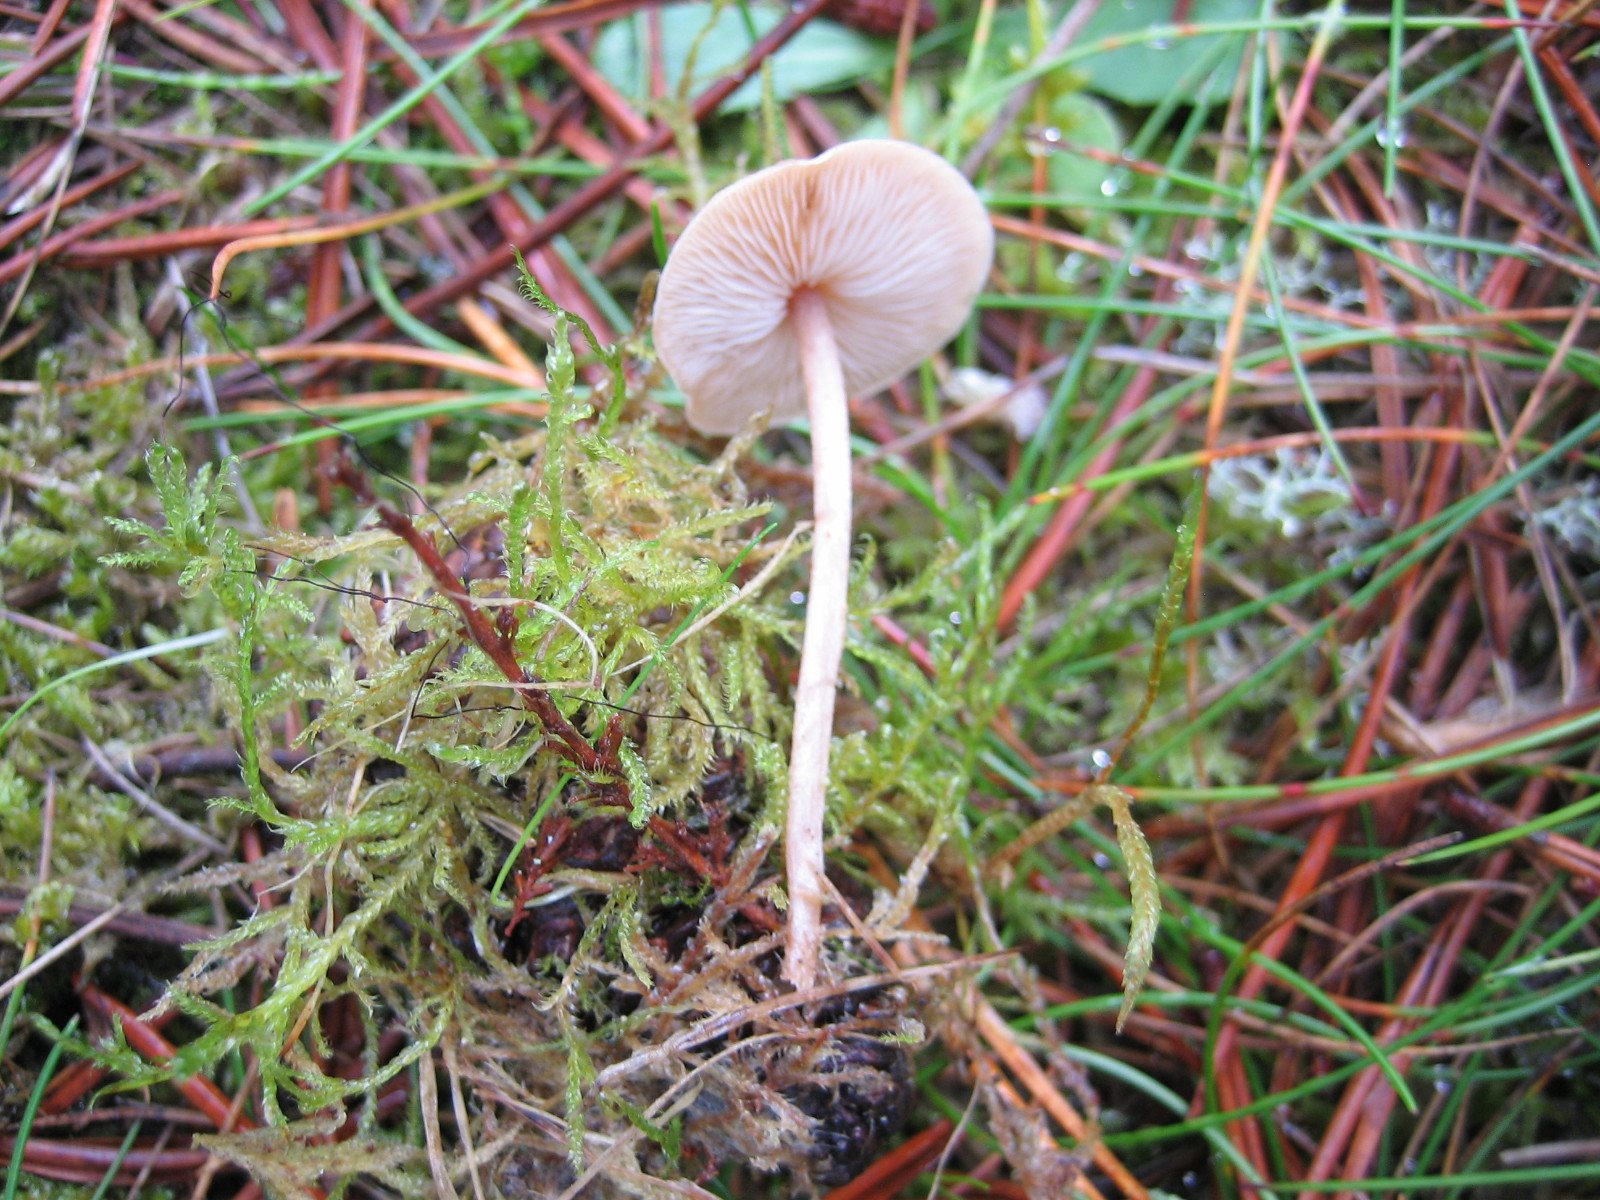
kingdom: Fungi
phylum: Basidiomycota
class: Agaricomycetes
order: Agaricales
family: Marasmiaceae
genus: Baeospora
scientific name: Baeospora myosura
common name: koglebruskhat
